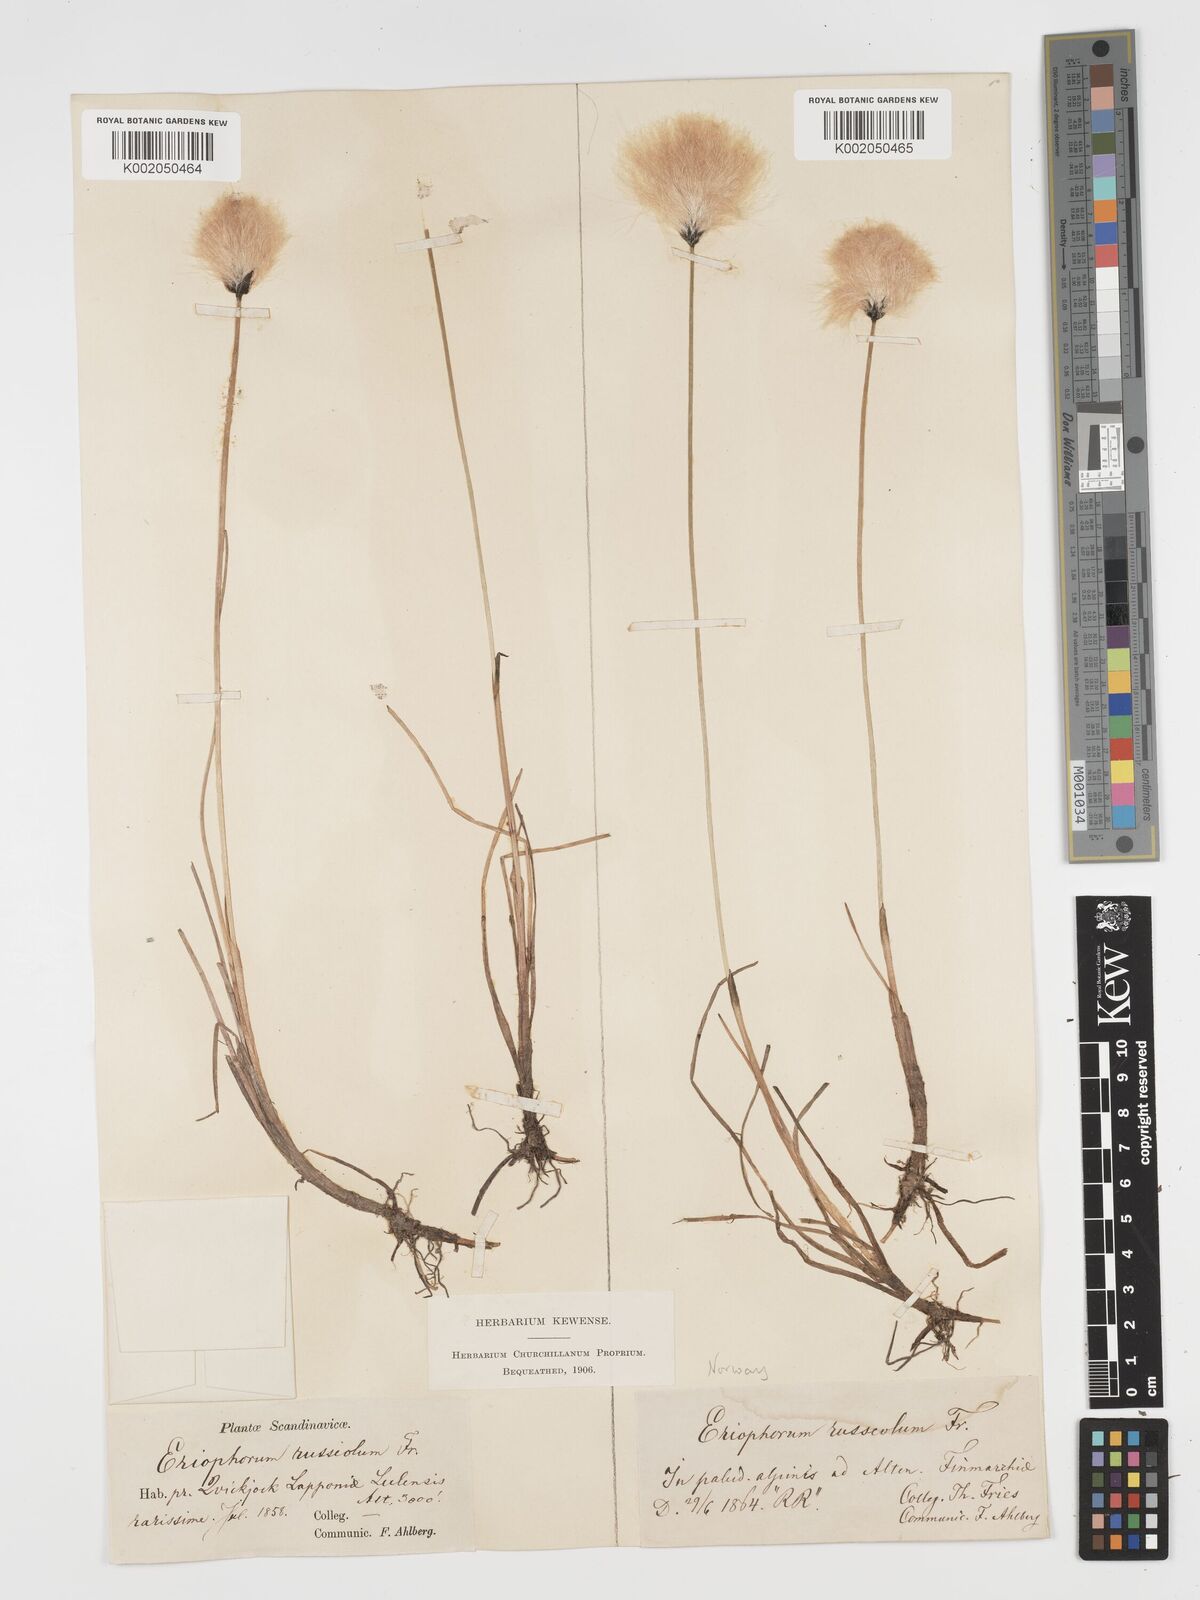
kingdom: Plantae
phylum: Tracheophyta
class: Liliopsida
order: Poales
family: Cyperaceae
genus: Eriophorum
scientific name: Eriophorum scheuchzeri
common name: Scheuchzer's cottongrass
